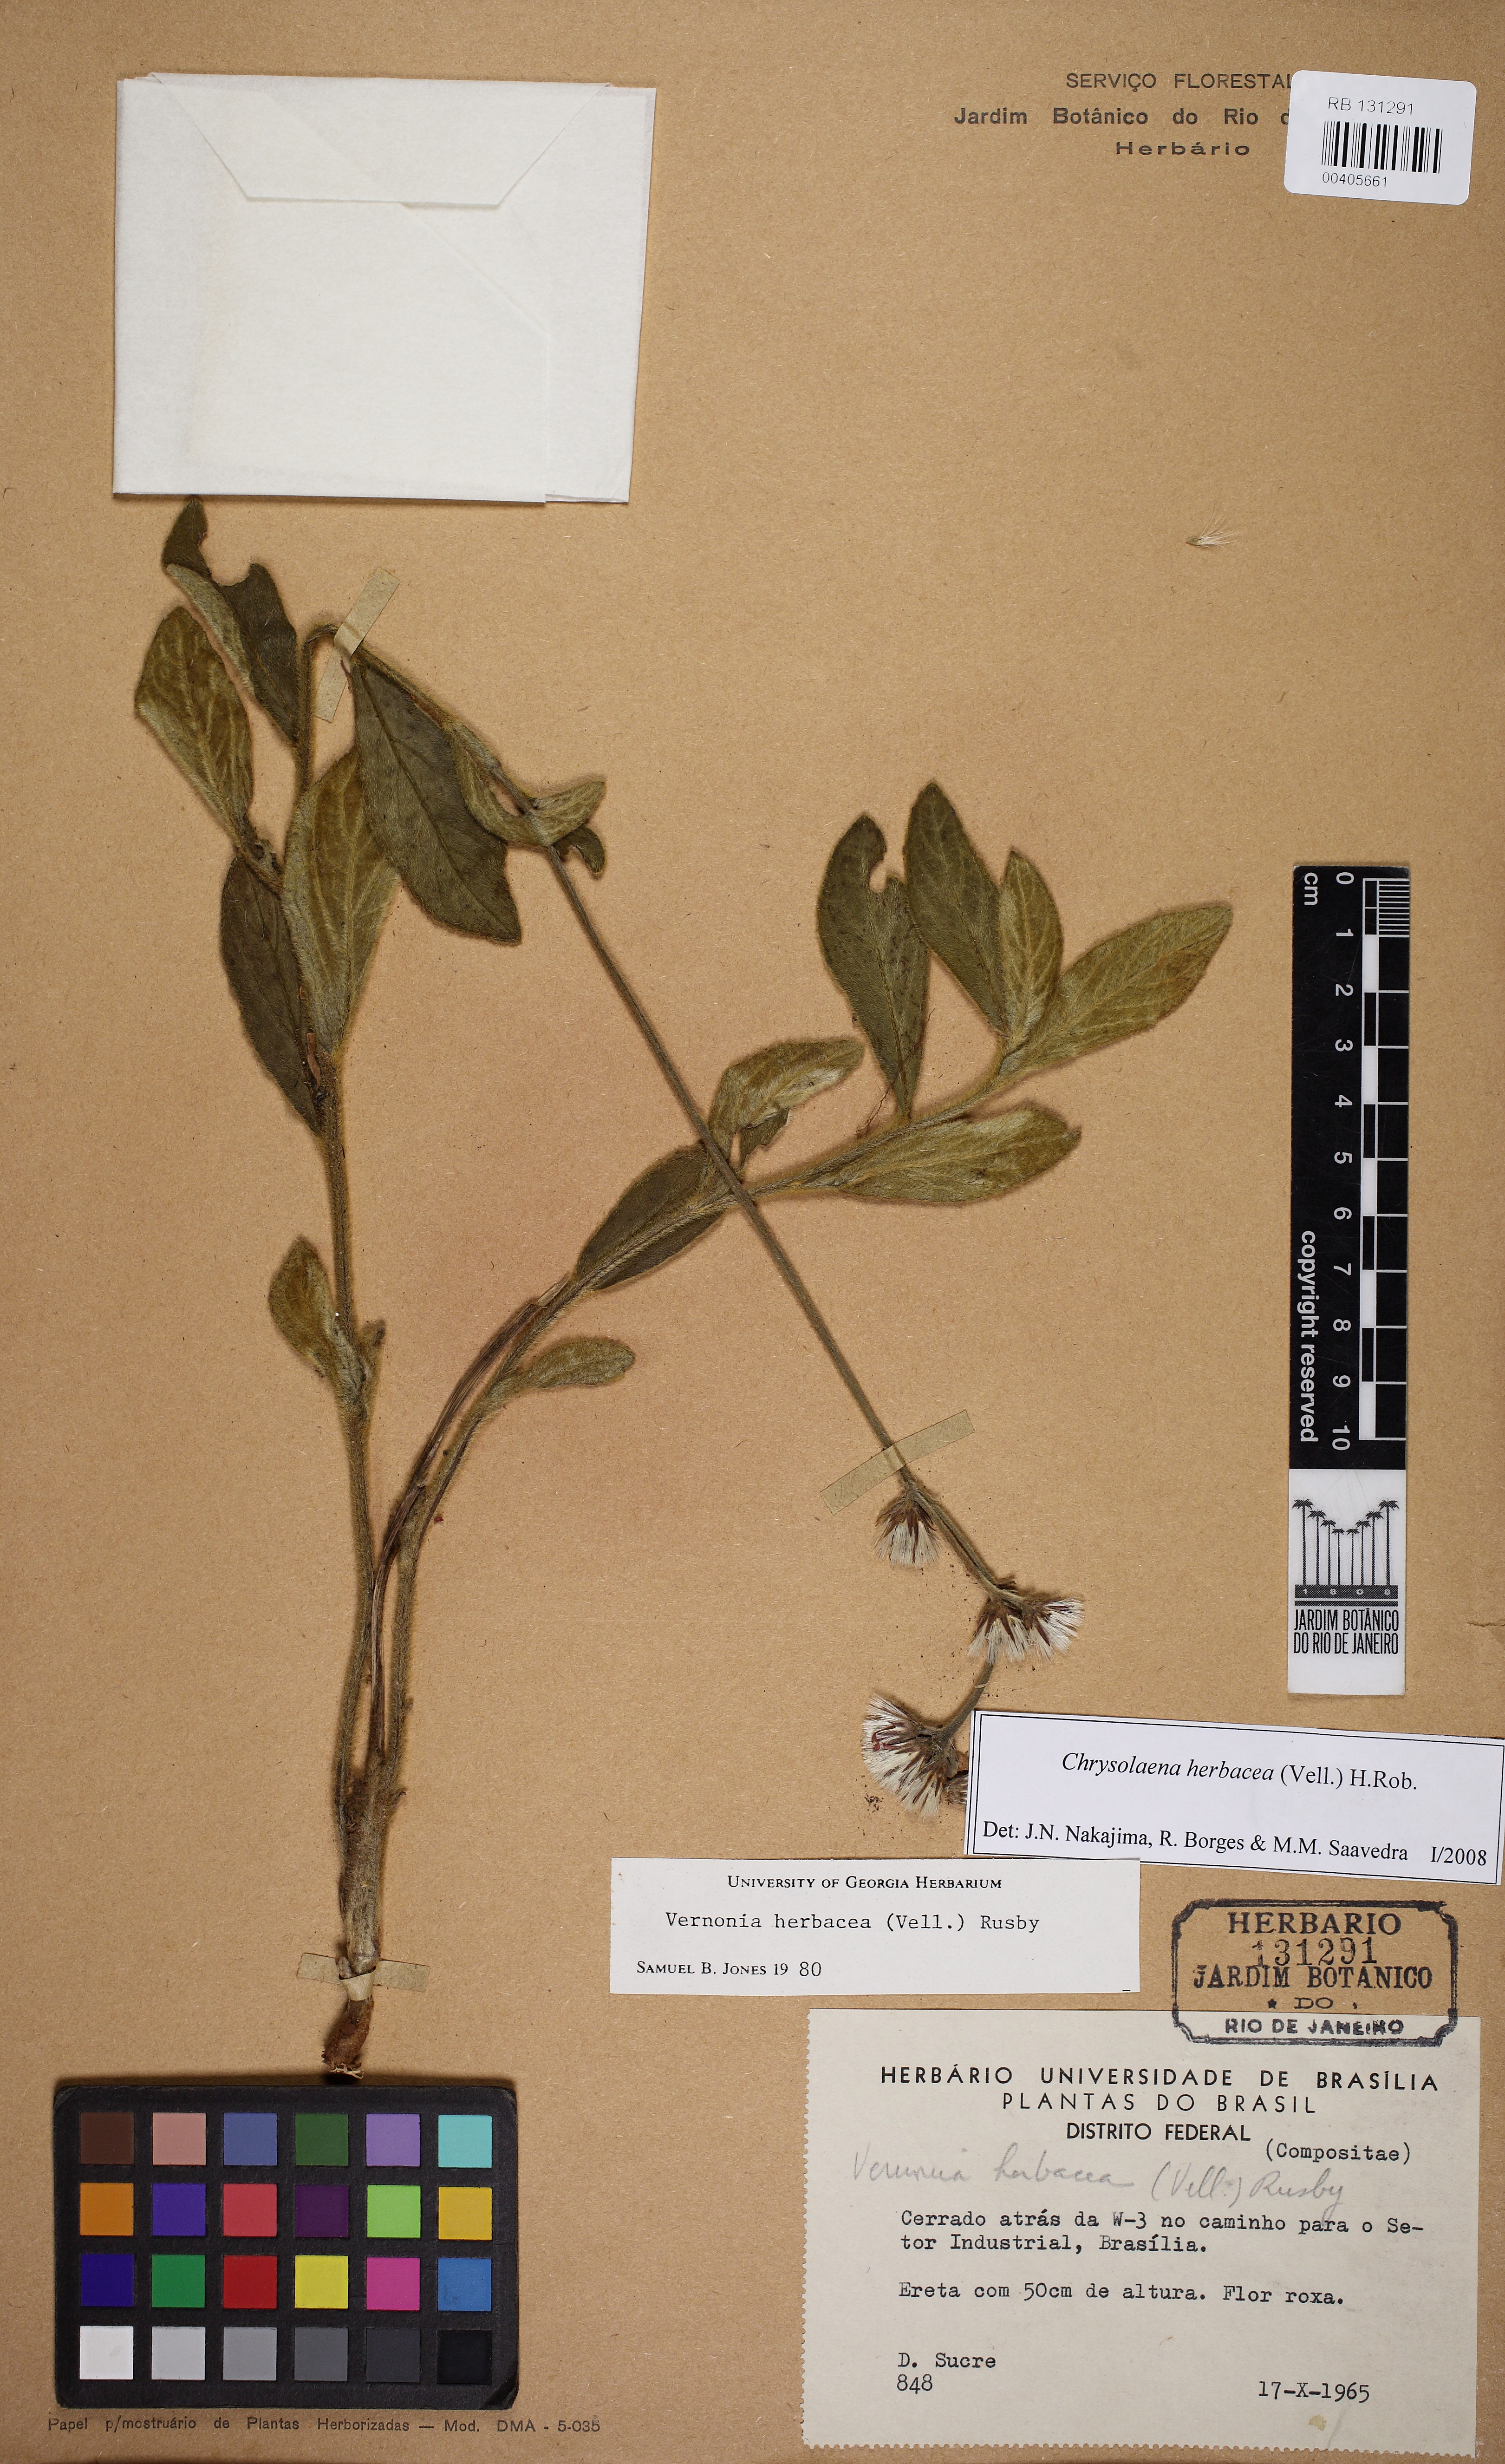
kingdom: Plantae
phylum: Tracheophyta
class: Magnoliopsida
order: Asterales
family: Asteraceae
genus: Chrysolaena
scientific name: Chrysolaena obovata
